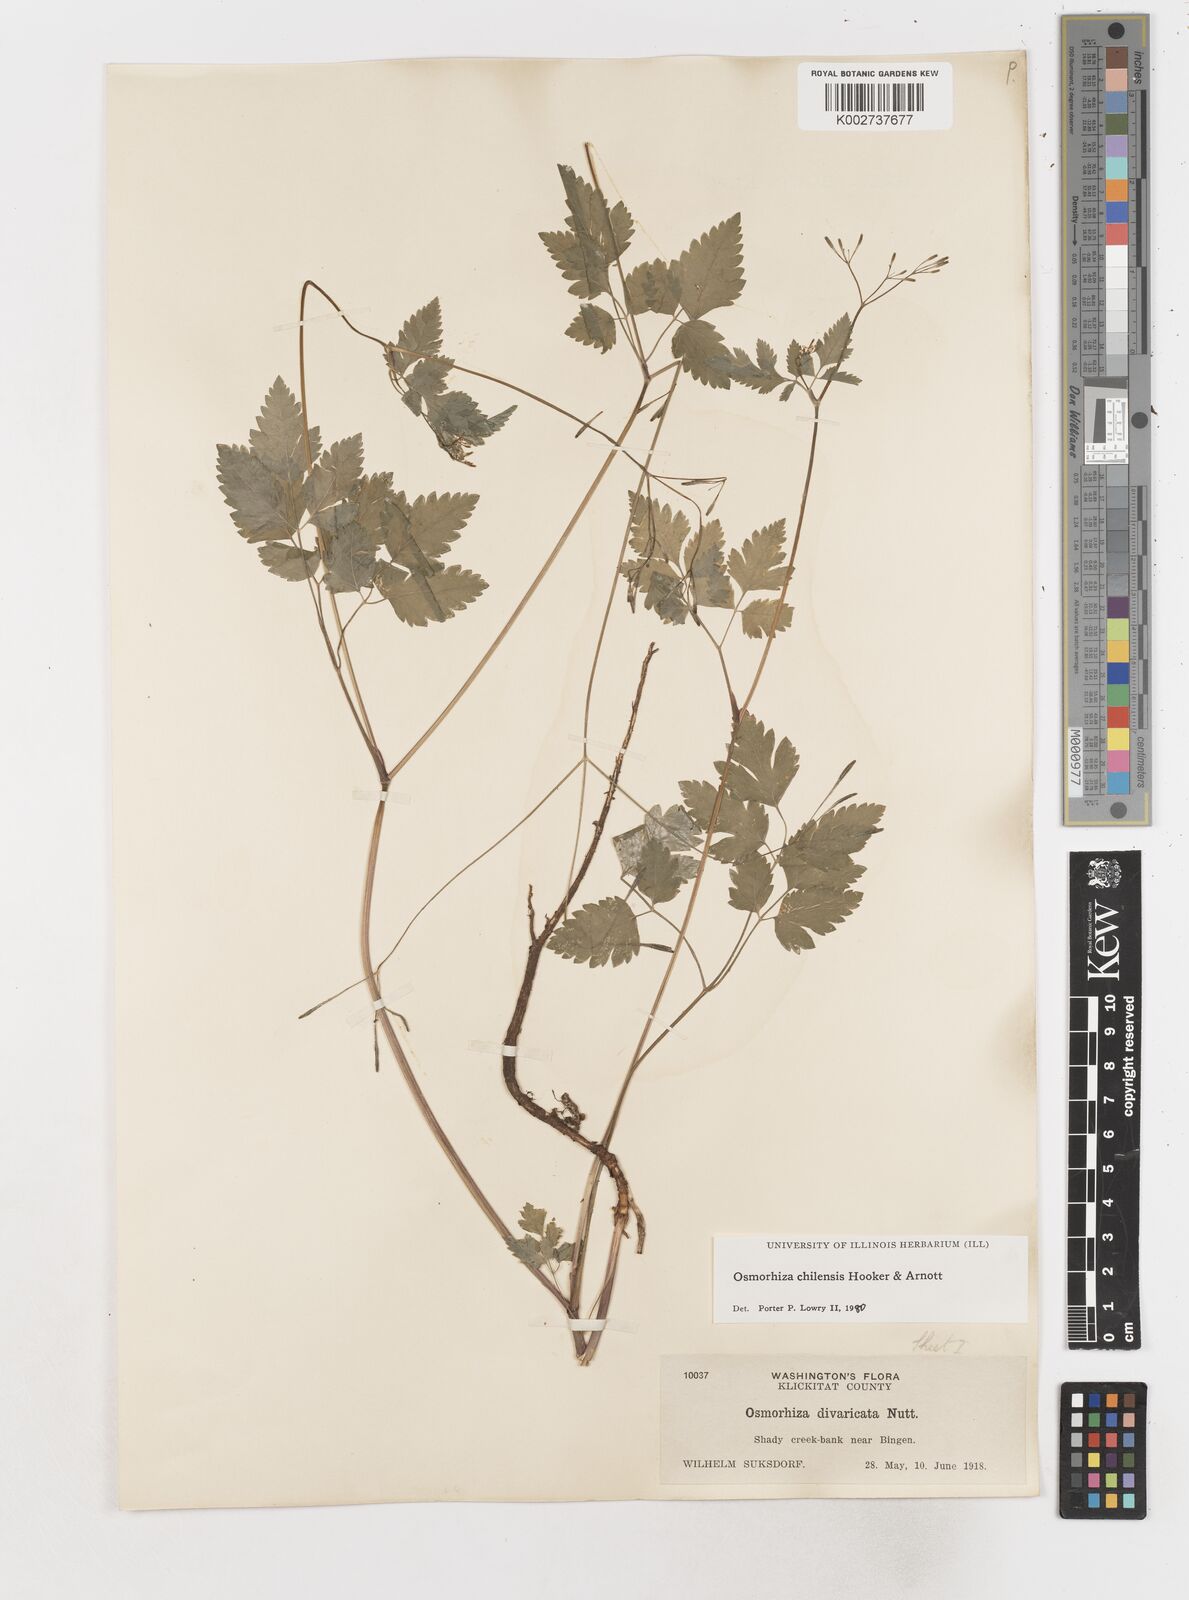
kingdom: Plantae
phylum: Tracheophyta
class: Magnoliopsida
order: Apiales
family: Apiaceae
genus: Osmorhiza
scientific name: Osmorhiza berteroi
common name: Mountain sweet cicely
